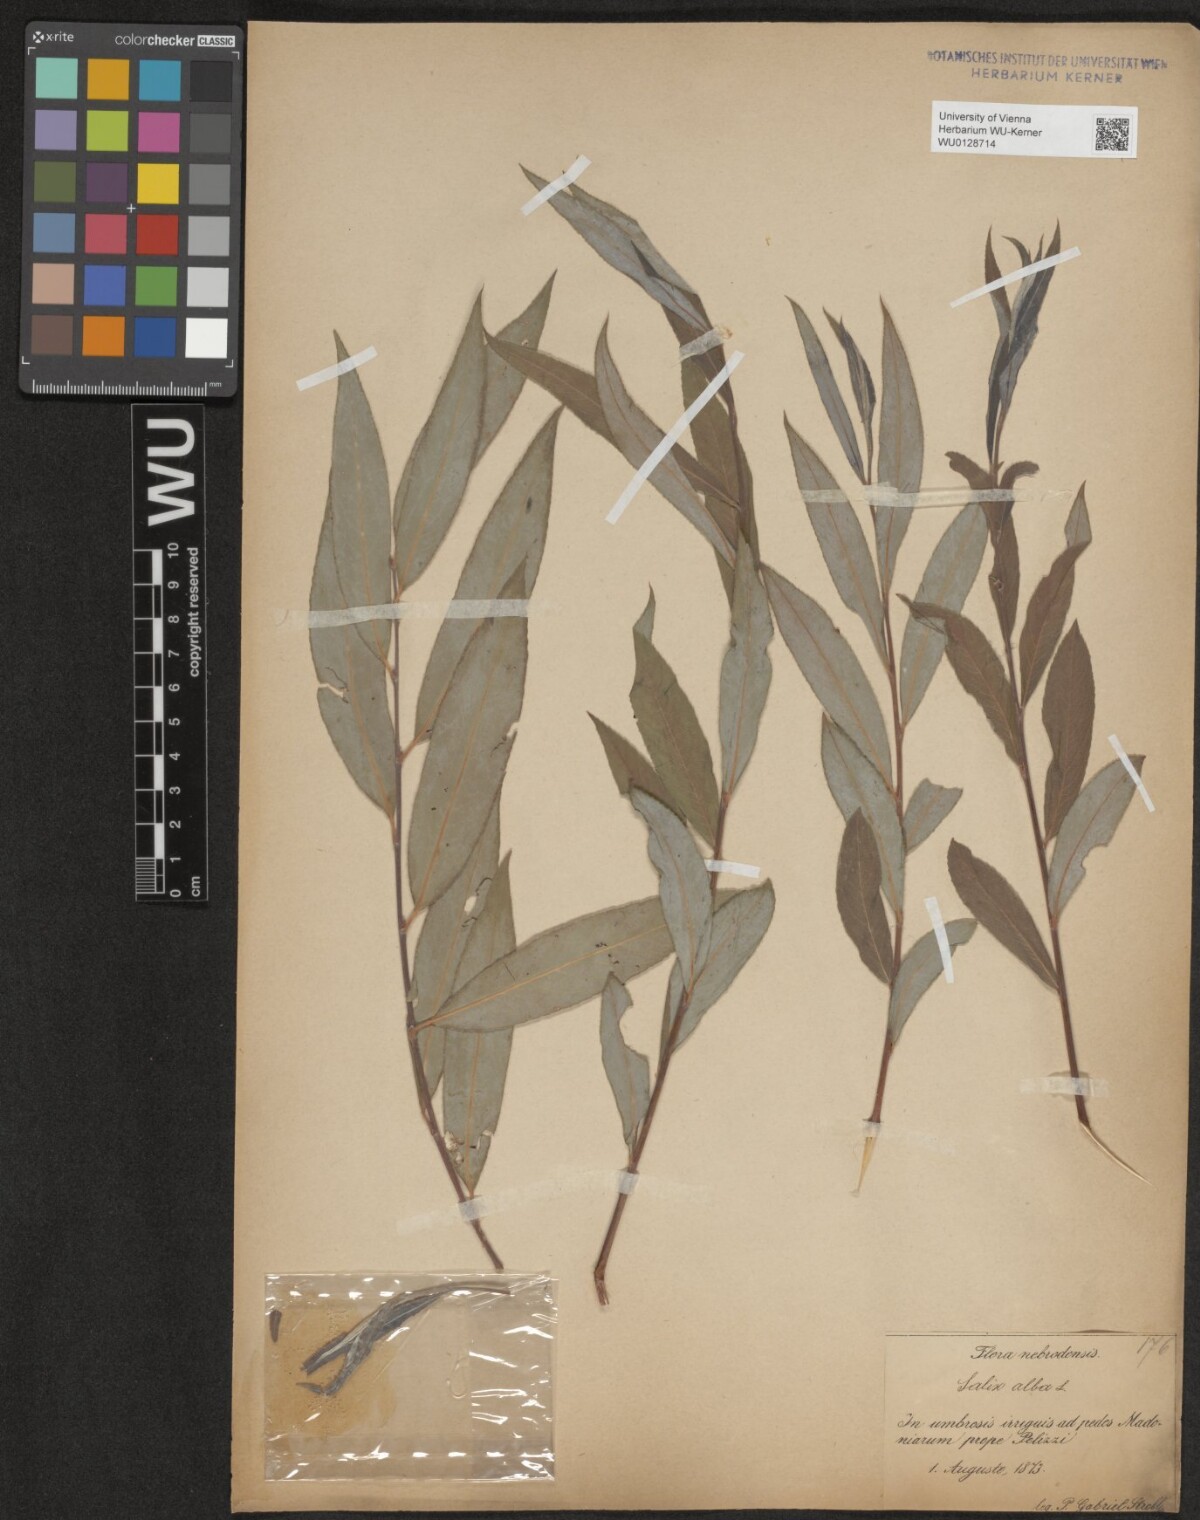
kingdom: Plantae
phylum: Tracheophyta
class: Magnoliopsida
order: Malpighiales
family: Salicaceae
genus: Salix
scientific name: Salix alba
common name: White willow
